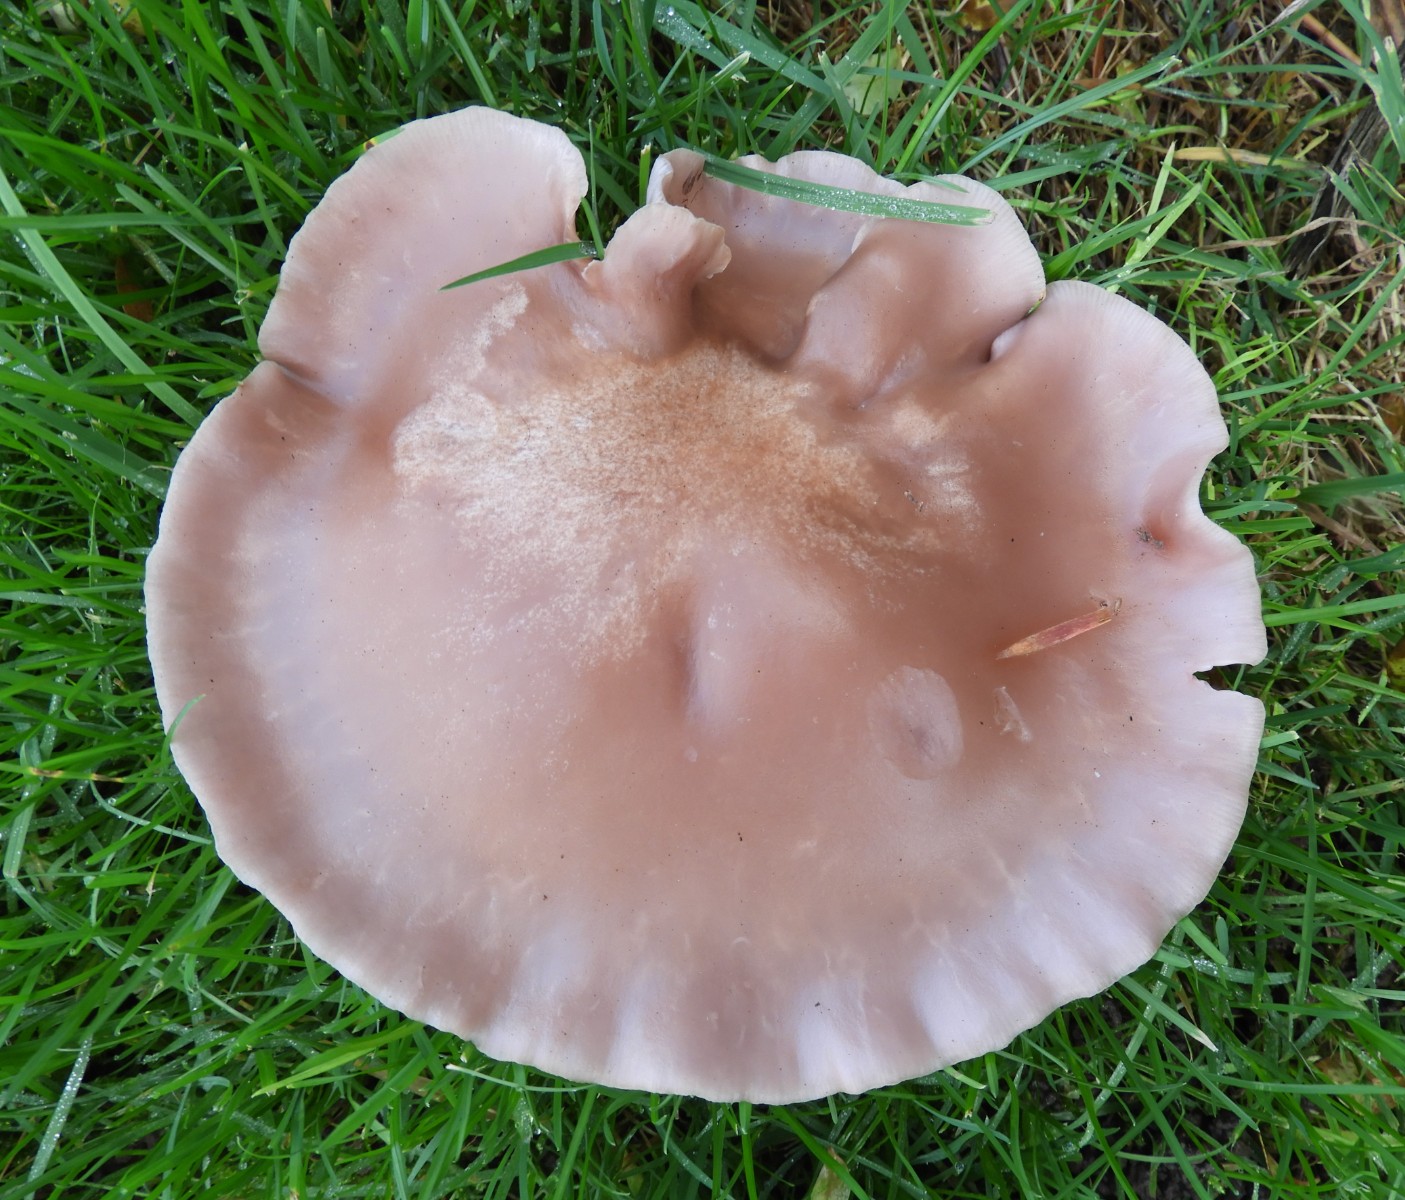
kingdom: Fungi
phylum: Basidiomycota
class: Agaricomycetes
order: Agaricales
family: Tricholomataceae
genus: Lepista
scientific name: Lepista nuda
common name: violet hekseringshat
